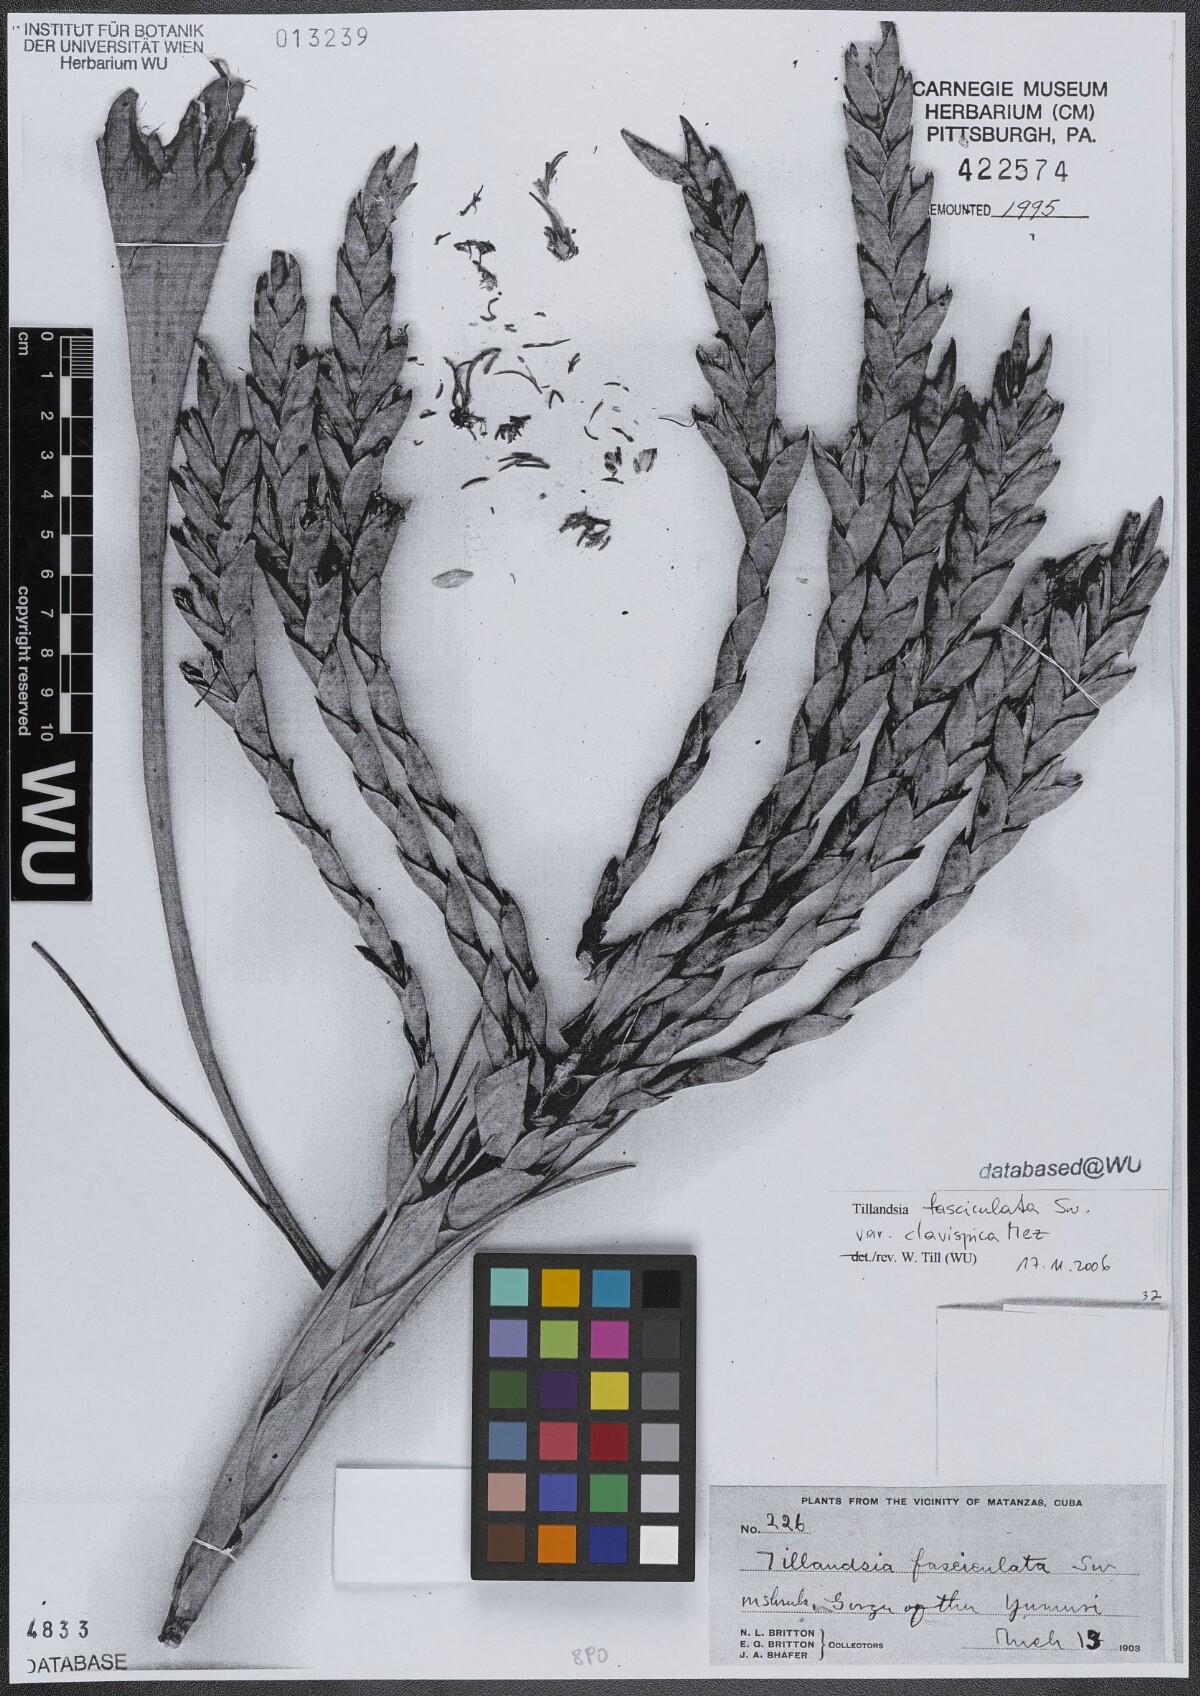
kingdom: Plantae
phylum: Tracheophyta
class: Liliopsida
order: Poales
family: Bromeliaceae
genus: Tillandsia
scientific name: Tillandsia fasciculata
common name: Giant airplant
